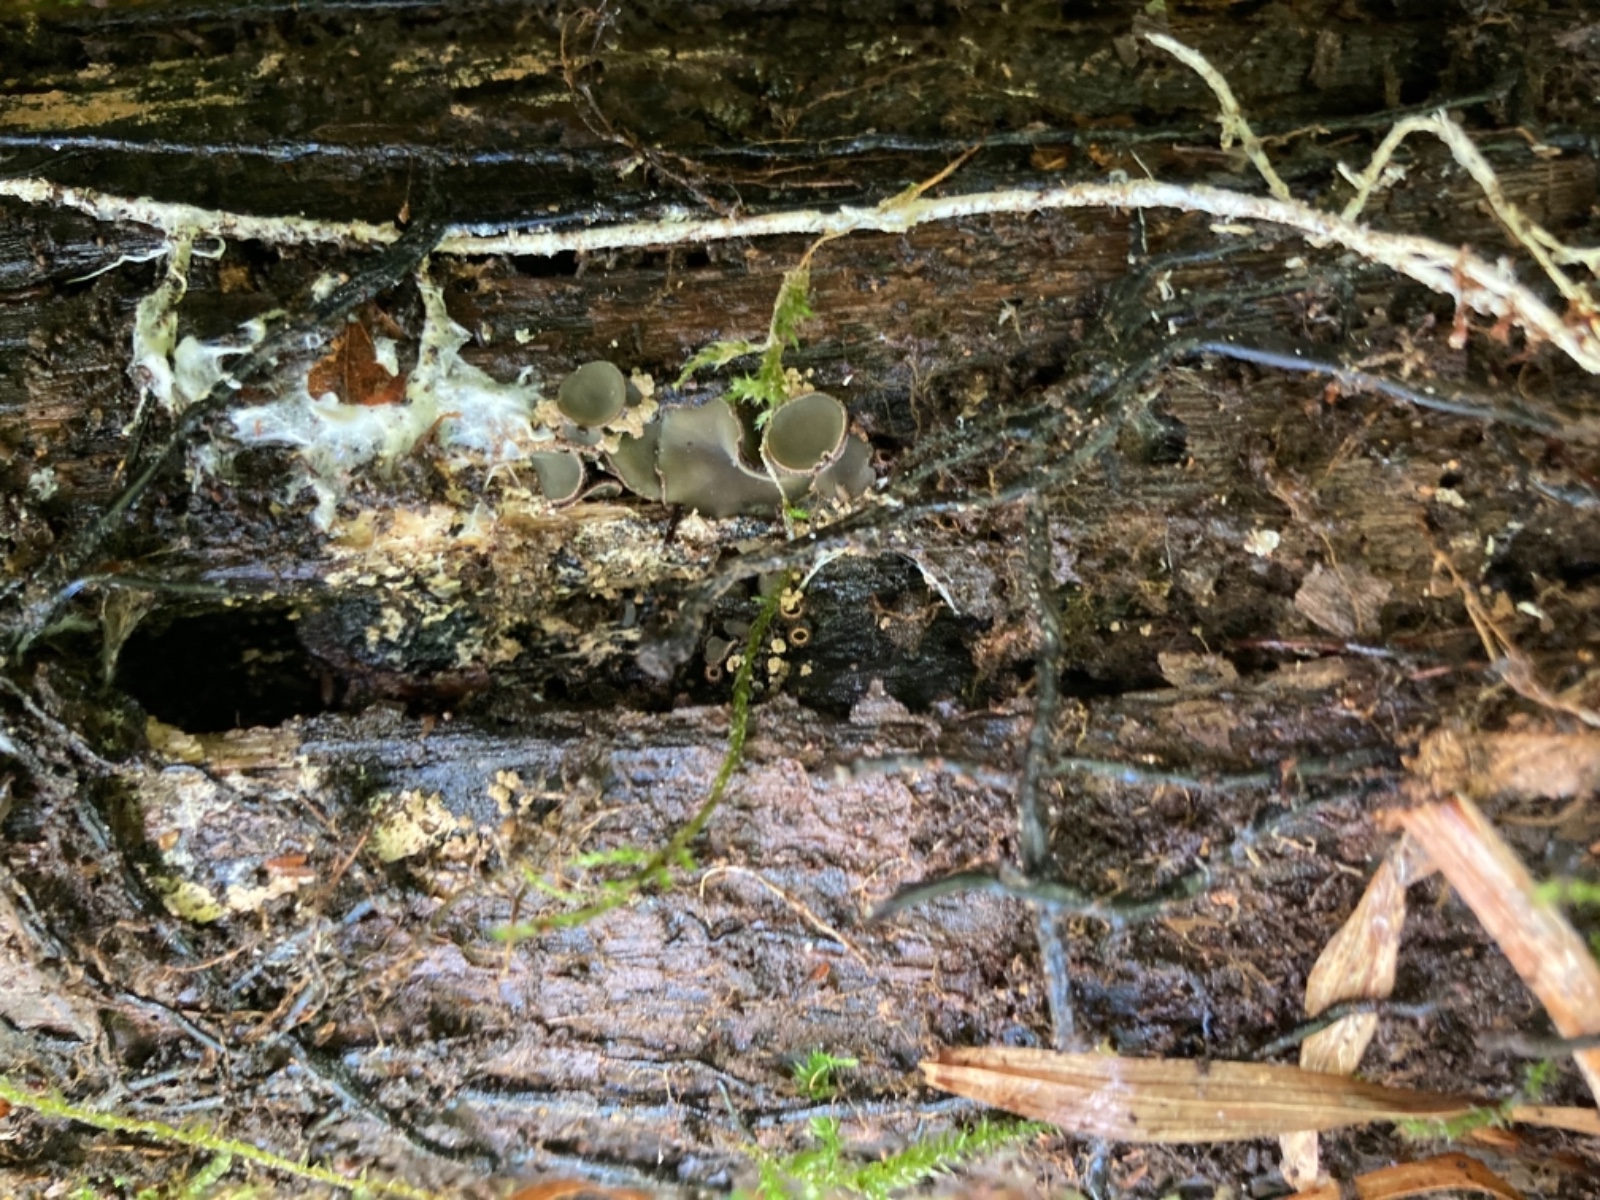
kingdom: Fungi
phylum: Ascomycota
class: Leotiomycetes
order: Helotiales
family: Cordieritidaceae
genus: Diplocarpa
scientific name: Diplocarpa bloxamii
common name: pragthårskive
